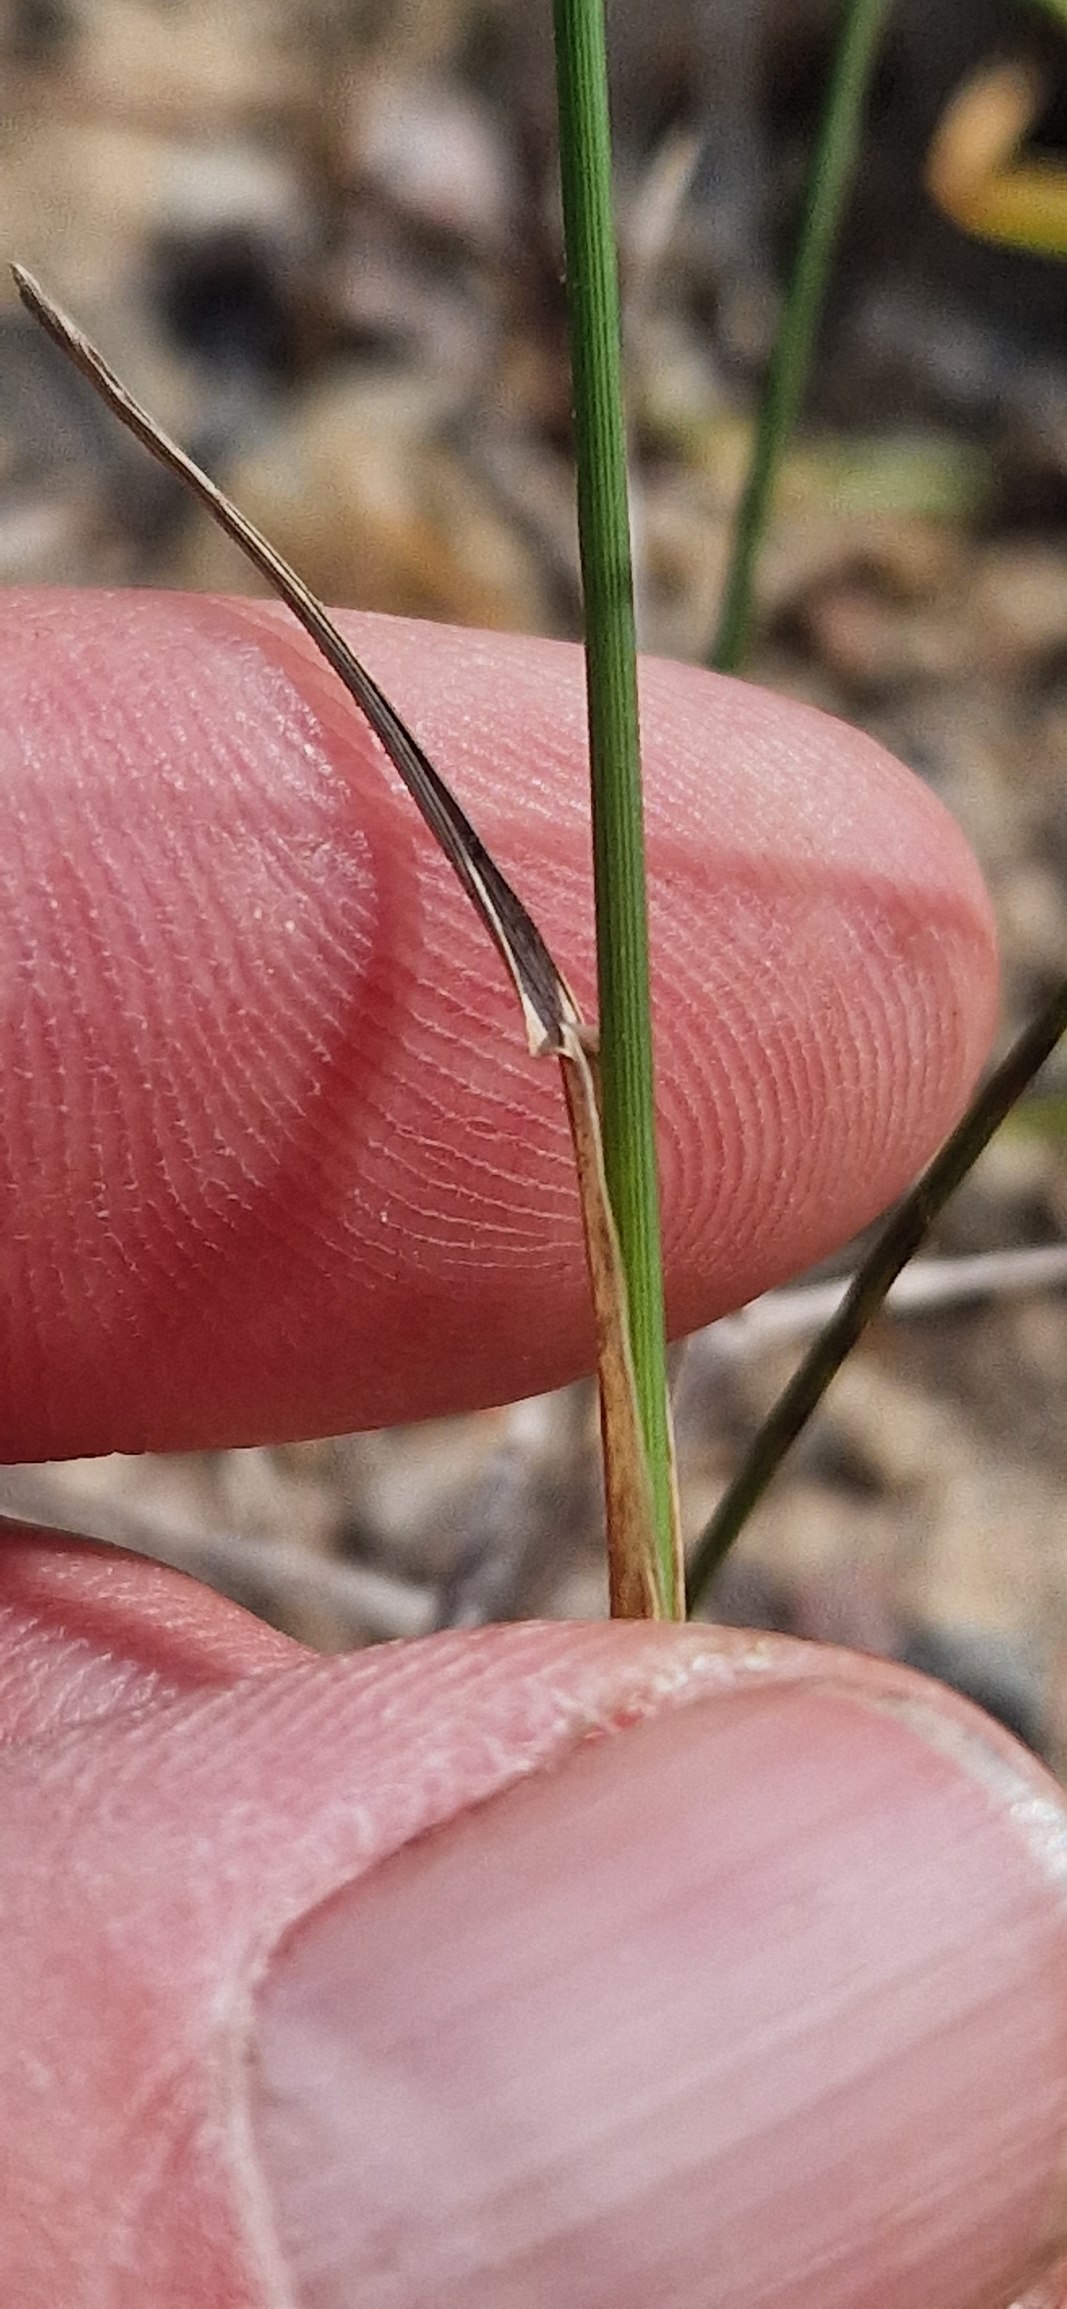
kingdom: Plantae
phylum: Tracheophyta
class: Liliopsida
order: Poales
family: Poaceae
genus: Poa
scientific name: Poa compressa
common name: Fladstrået rapgræs
